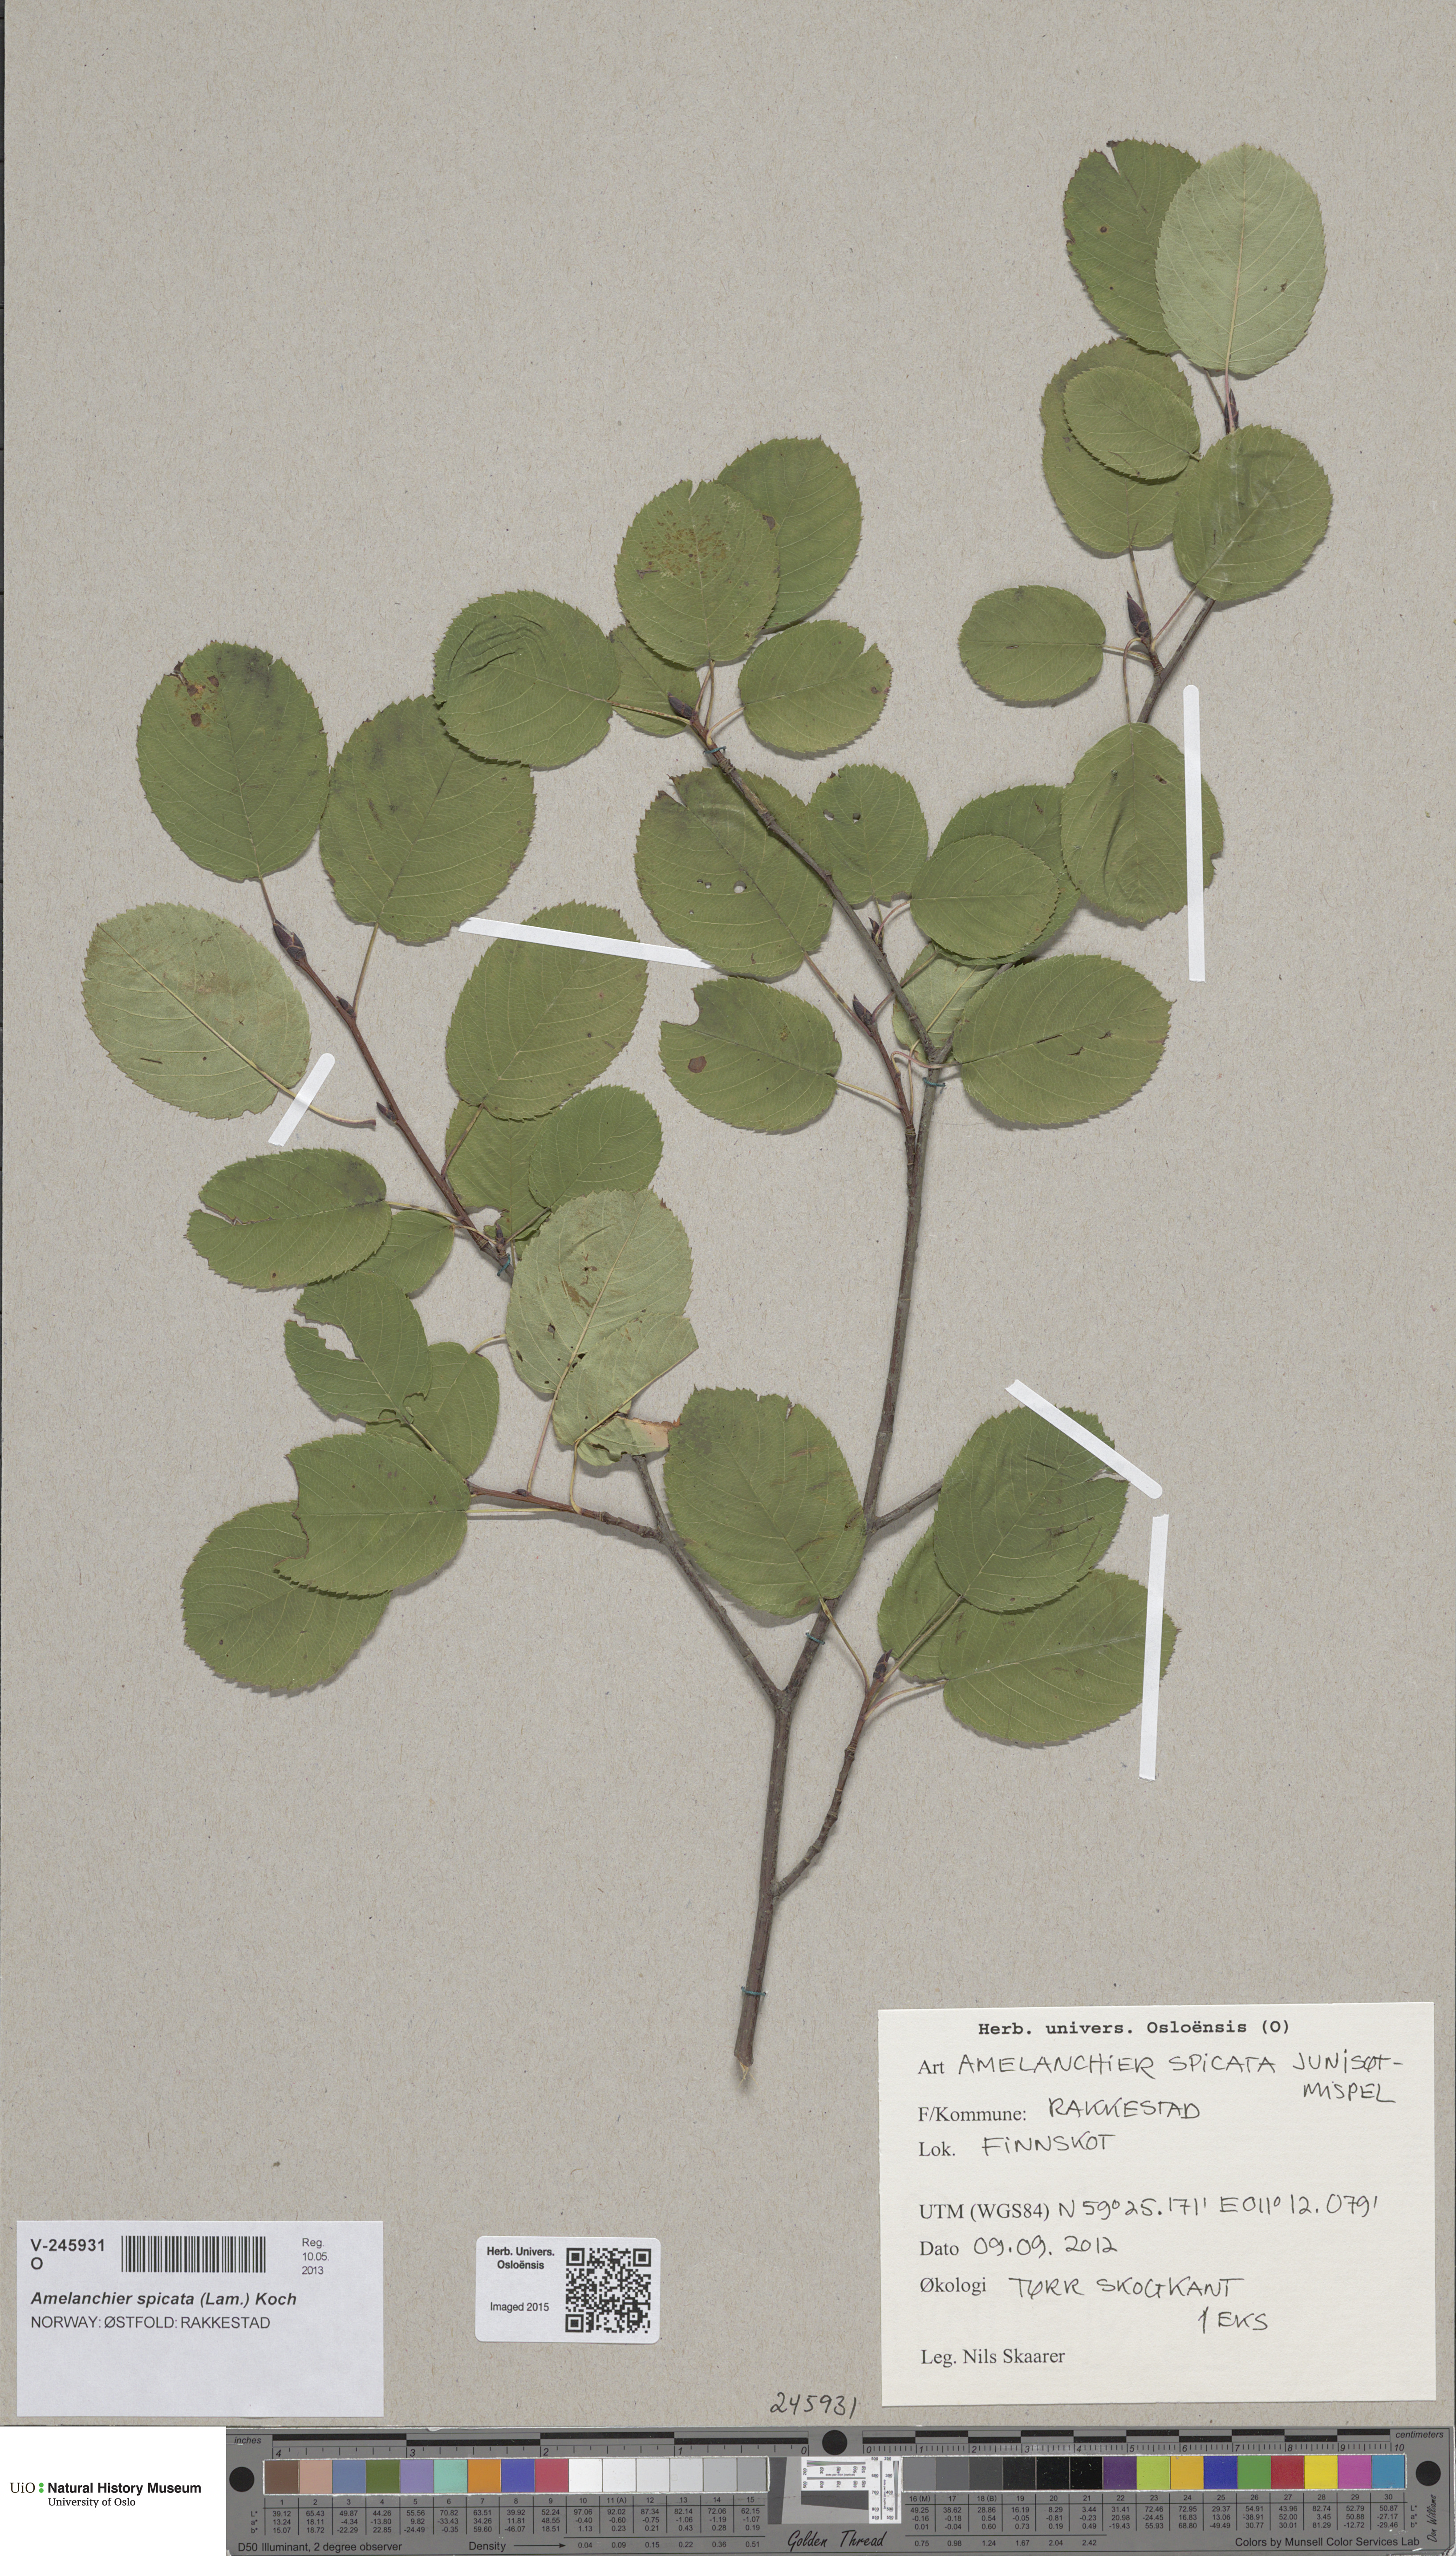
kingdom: Plantae
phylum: Tracheophyta
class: Magnoliopsida
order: Rosales
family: Rosaceae
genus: Amelanchier
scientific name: Amelanchier humilis
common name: Low juneberry
